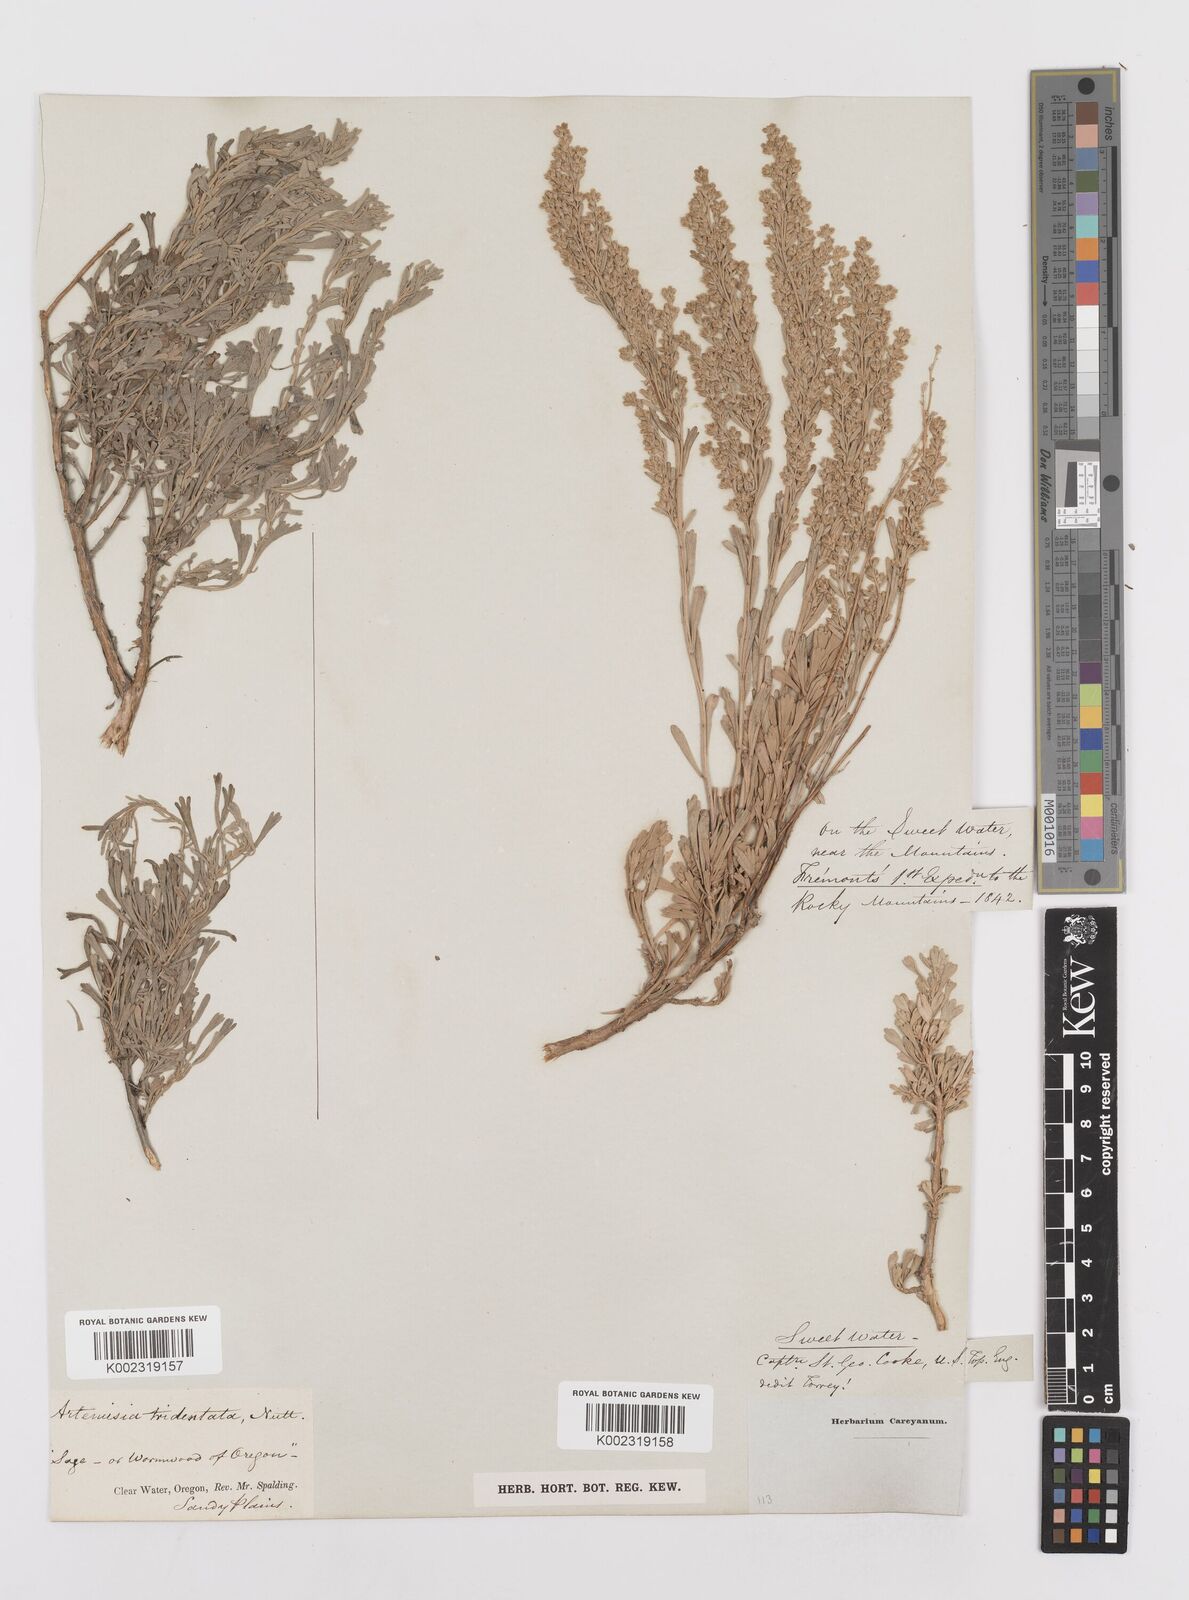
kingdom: Plantae
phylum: Tracheophyta
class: Magnoliopsida
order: Asterales
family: Asteraceae
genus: Artemisia
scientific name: Artemisia tridentata
